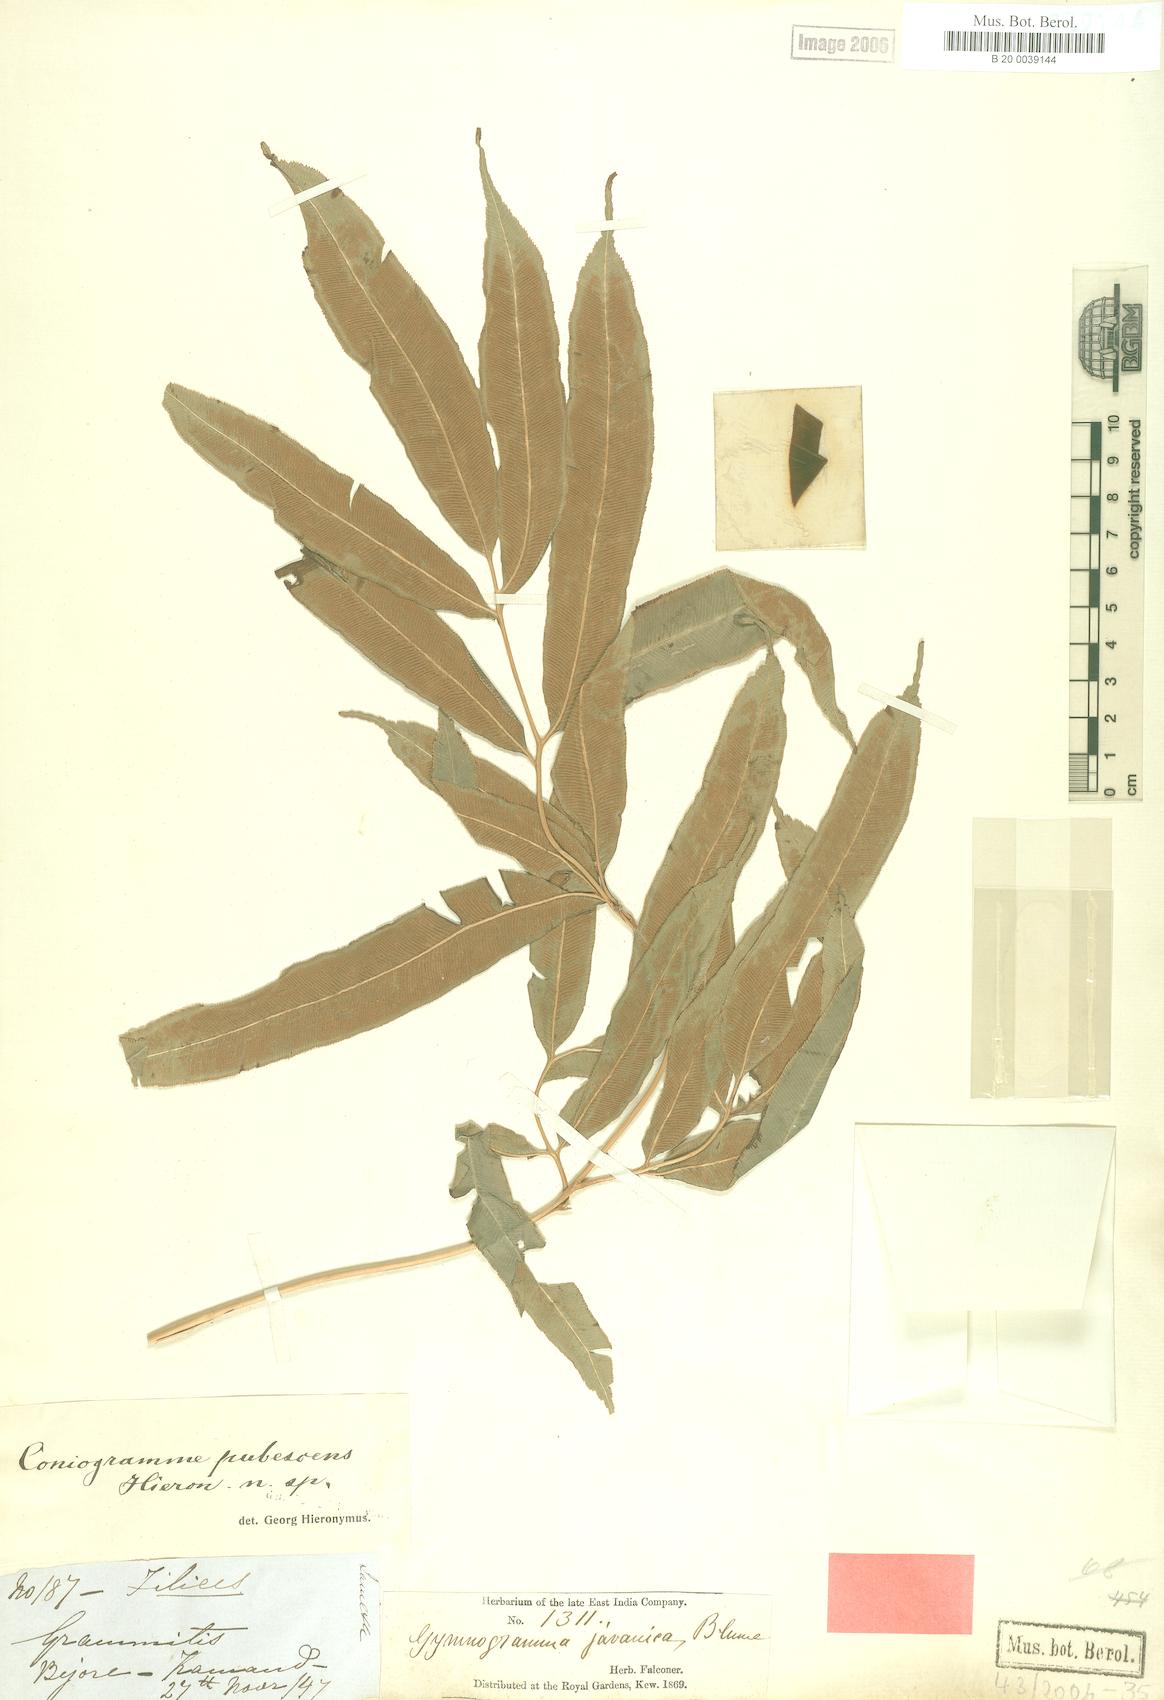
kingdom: Plantae
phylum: Tracheophyta
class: Polypodiopsida
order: Polypodiales
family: Pteridaceae
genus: Coniogramme
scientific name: Coniogramme pubescens
